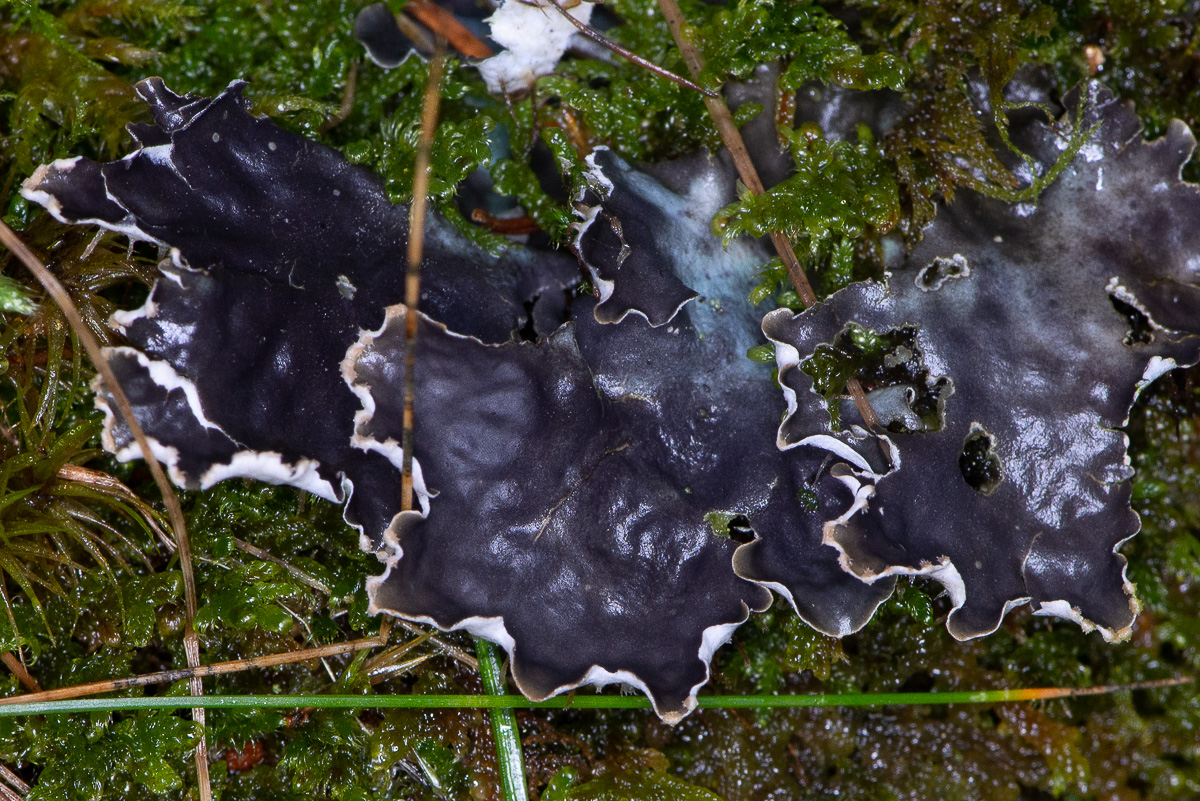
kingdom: Fungi
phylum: Ascomycota
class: Lecanoromycetes
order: Peltigerales
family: Peltigeraceae
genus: Peltigera
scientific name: Peltigera hymenina
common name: hinde-skjoldlav
